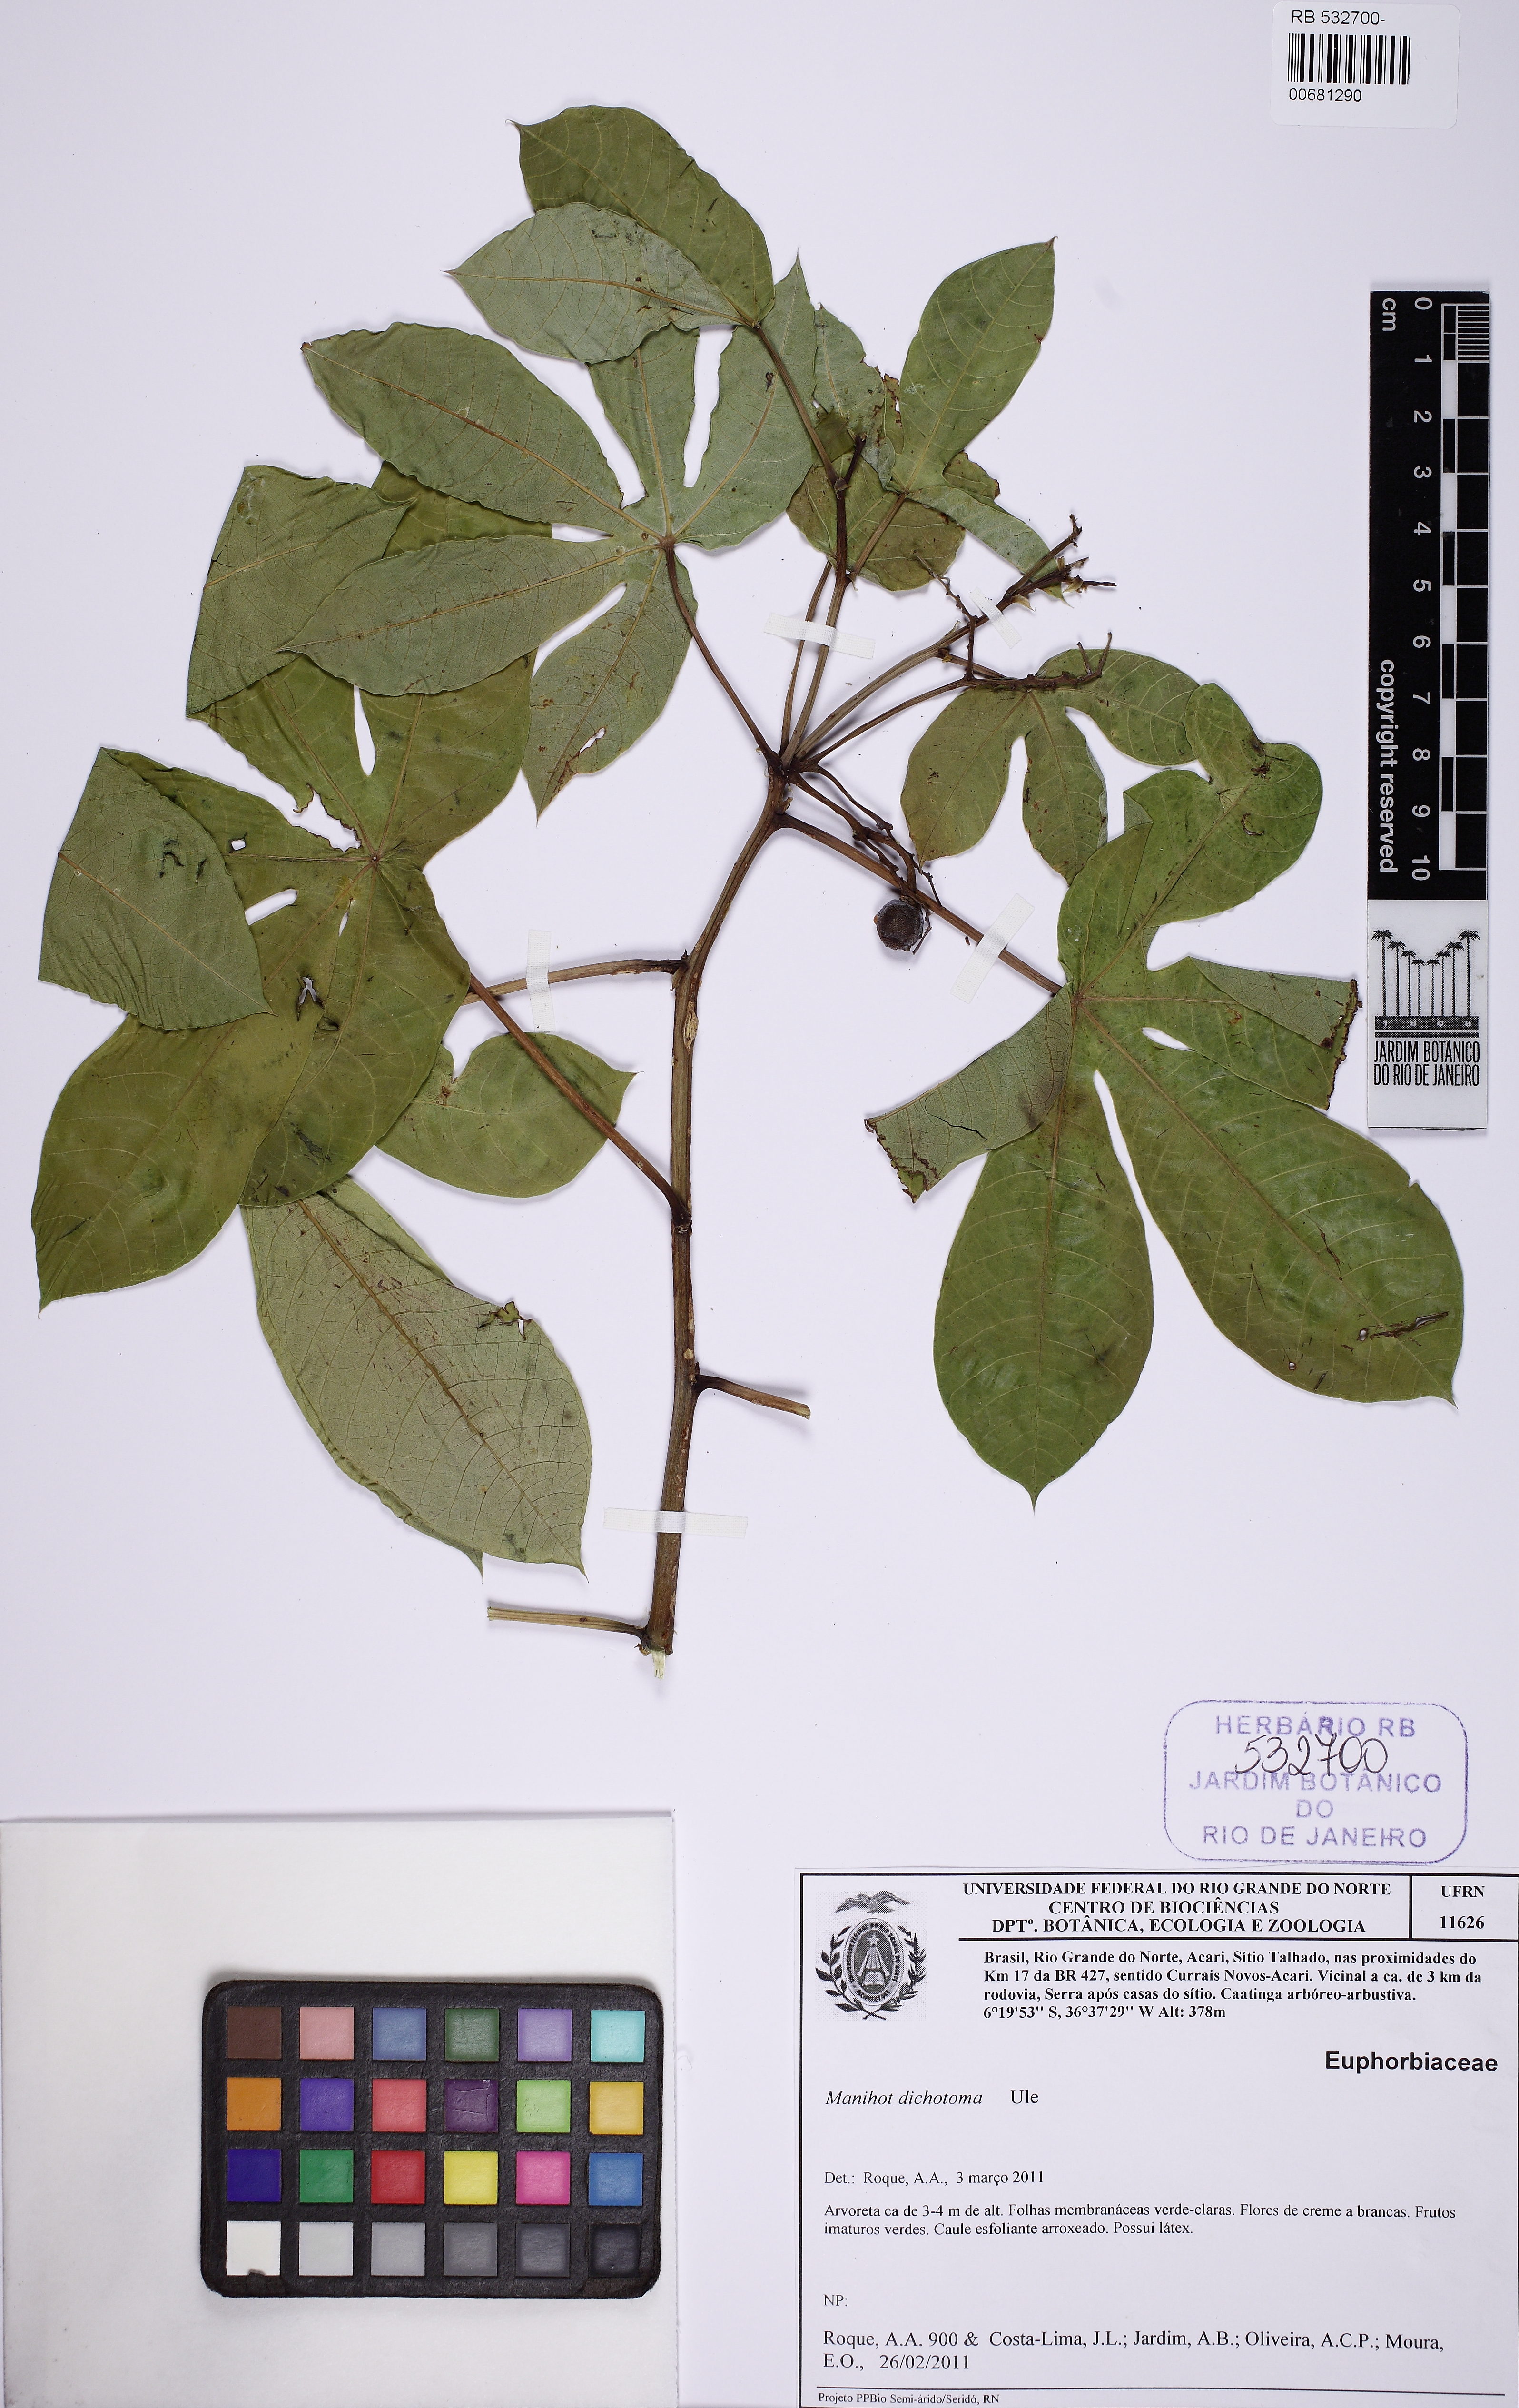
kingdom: Plantae
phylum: Tracheophyta
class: Magnoliopsida
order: Malpighiales
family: Euphorbiaceae
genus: Manihot
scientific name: Manihot pseudoglaziovii
